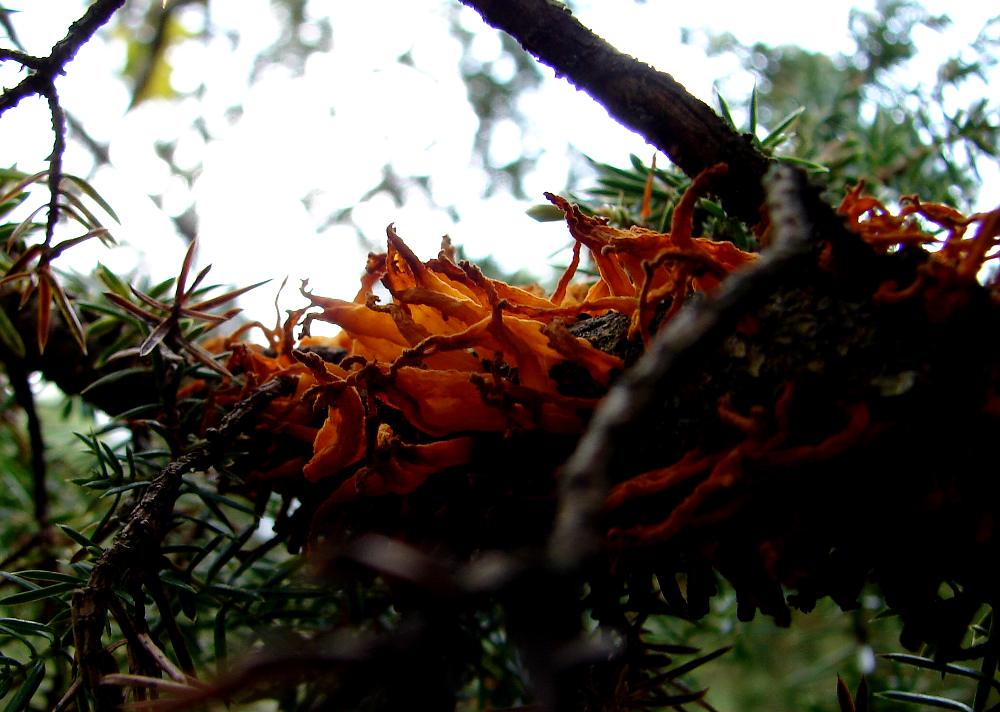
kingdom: Fungi
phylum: Basidiomycota
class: Pucciniomycetes
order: Pucciniales
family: Gymnosporangiaceae
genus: Gymnosporangium
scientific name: Gymnosporangium clavariiforme
